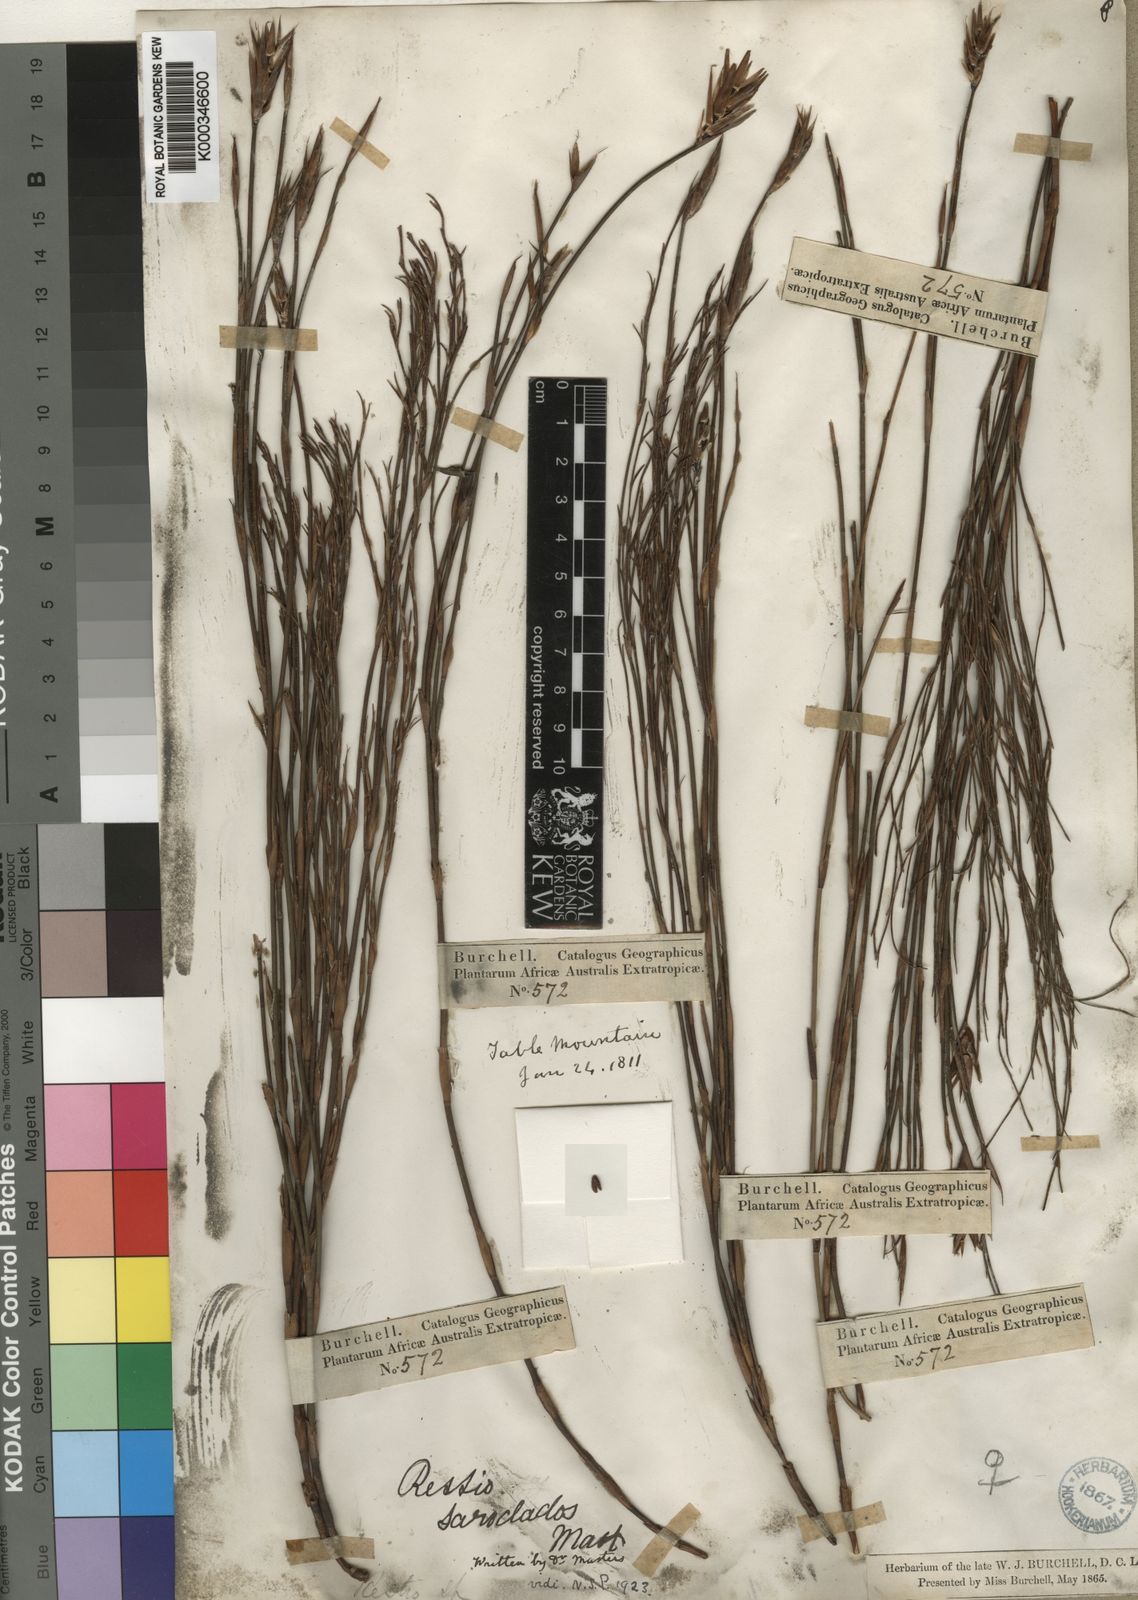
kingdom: Plantae
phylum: Tracheophyta
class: Liliopsida
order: Poales
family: Restionaceae
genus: Restio
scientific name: Restio saroclados
